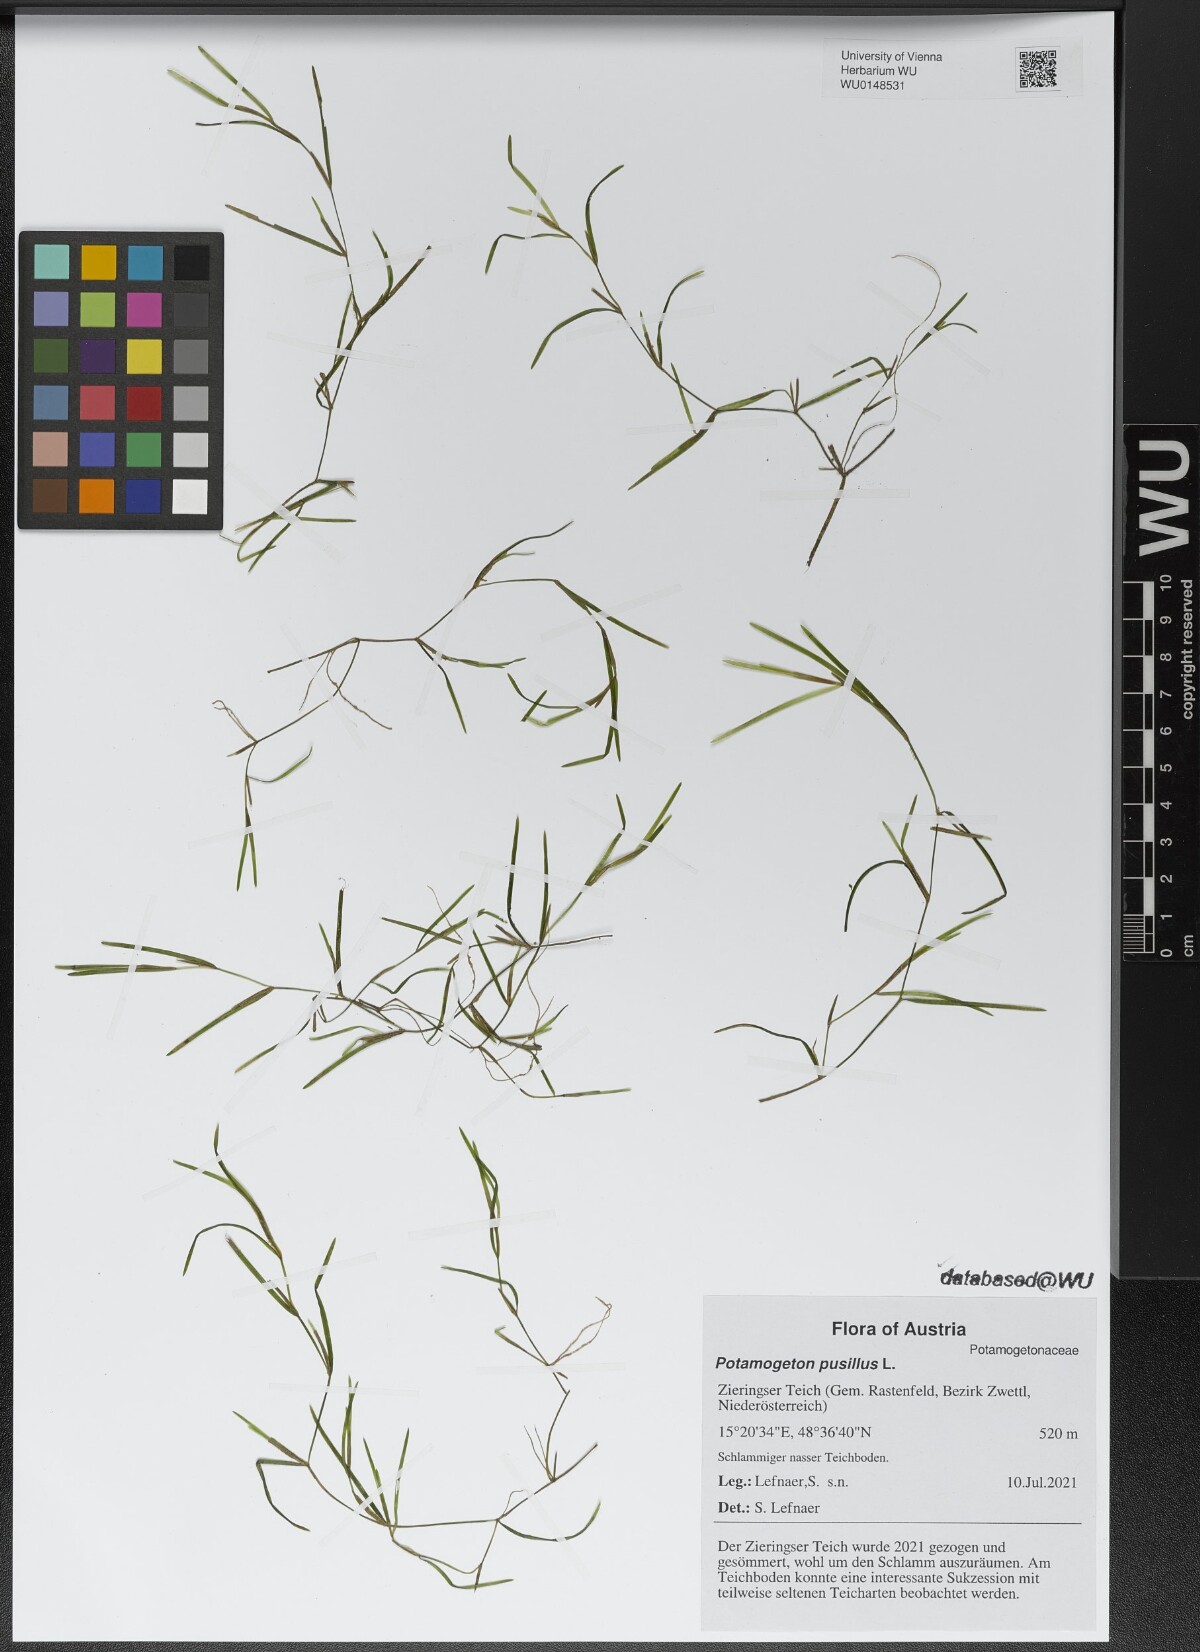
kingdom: Plantae
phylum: Tracheophyta
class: Liliopsida
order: Alismatales
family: Potamogetonaceae
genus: Potamogeton
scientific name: Potamogeton pusillus
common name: Lesser pondweed
